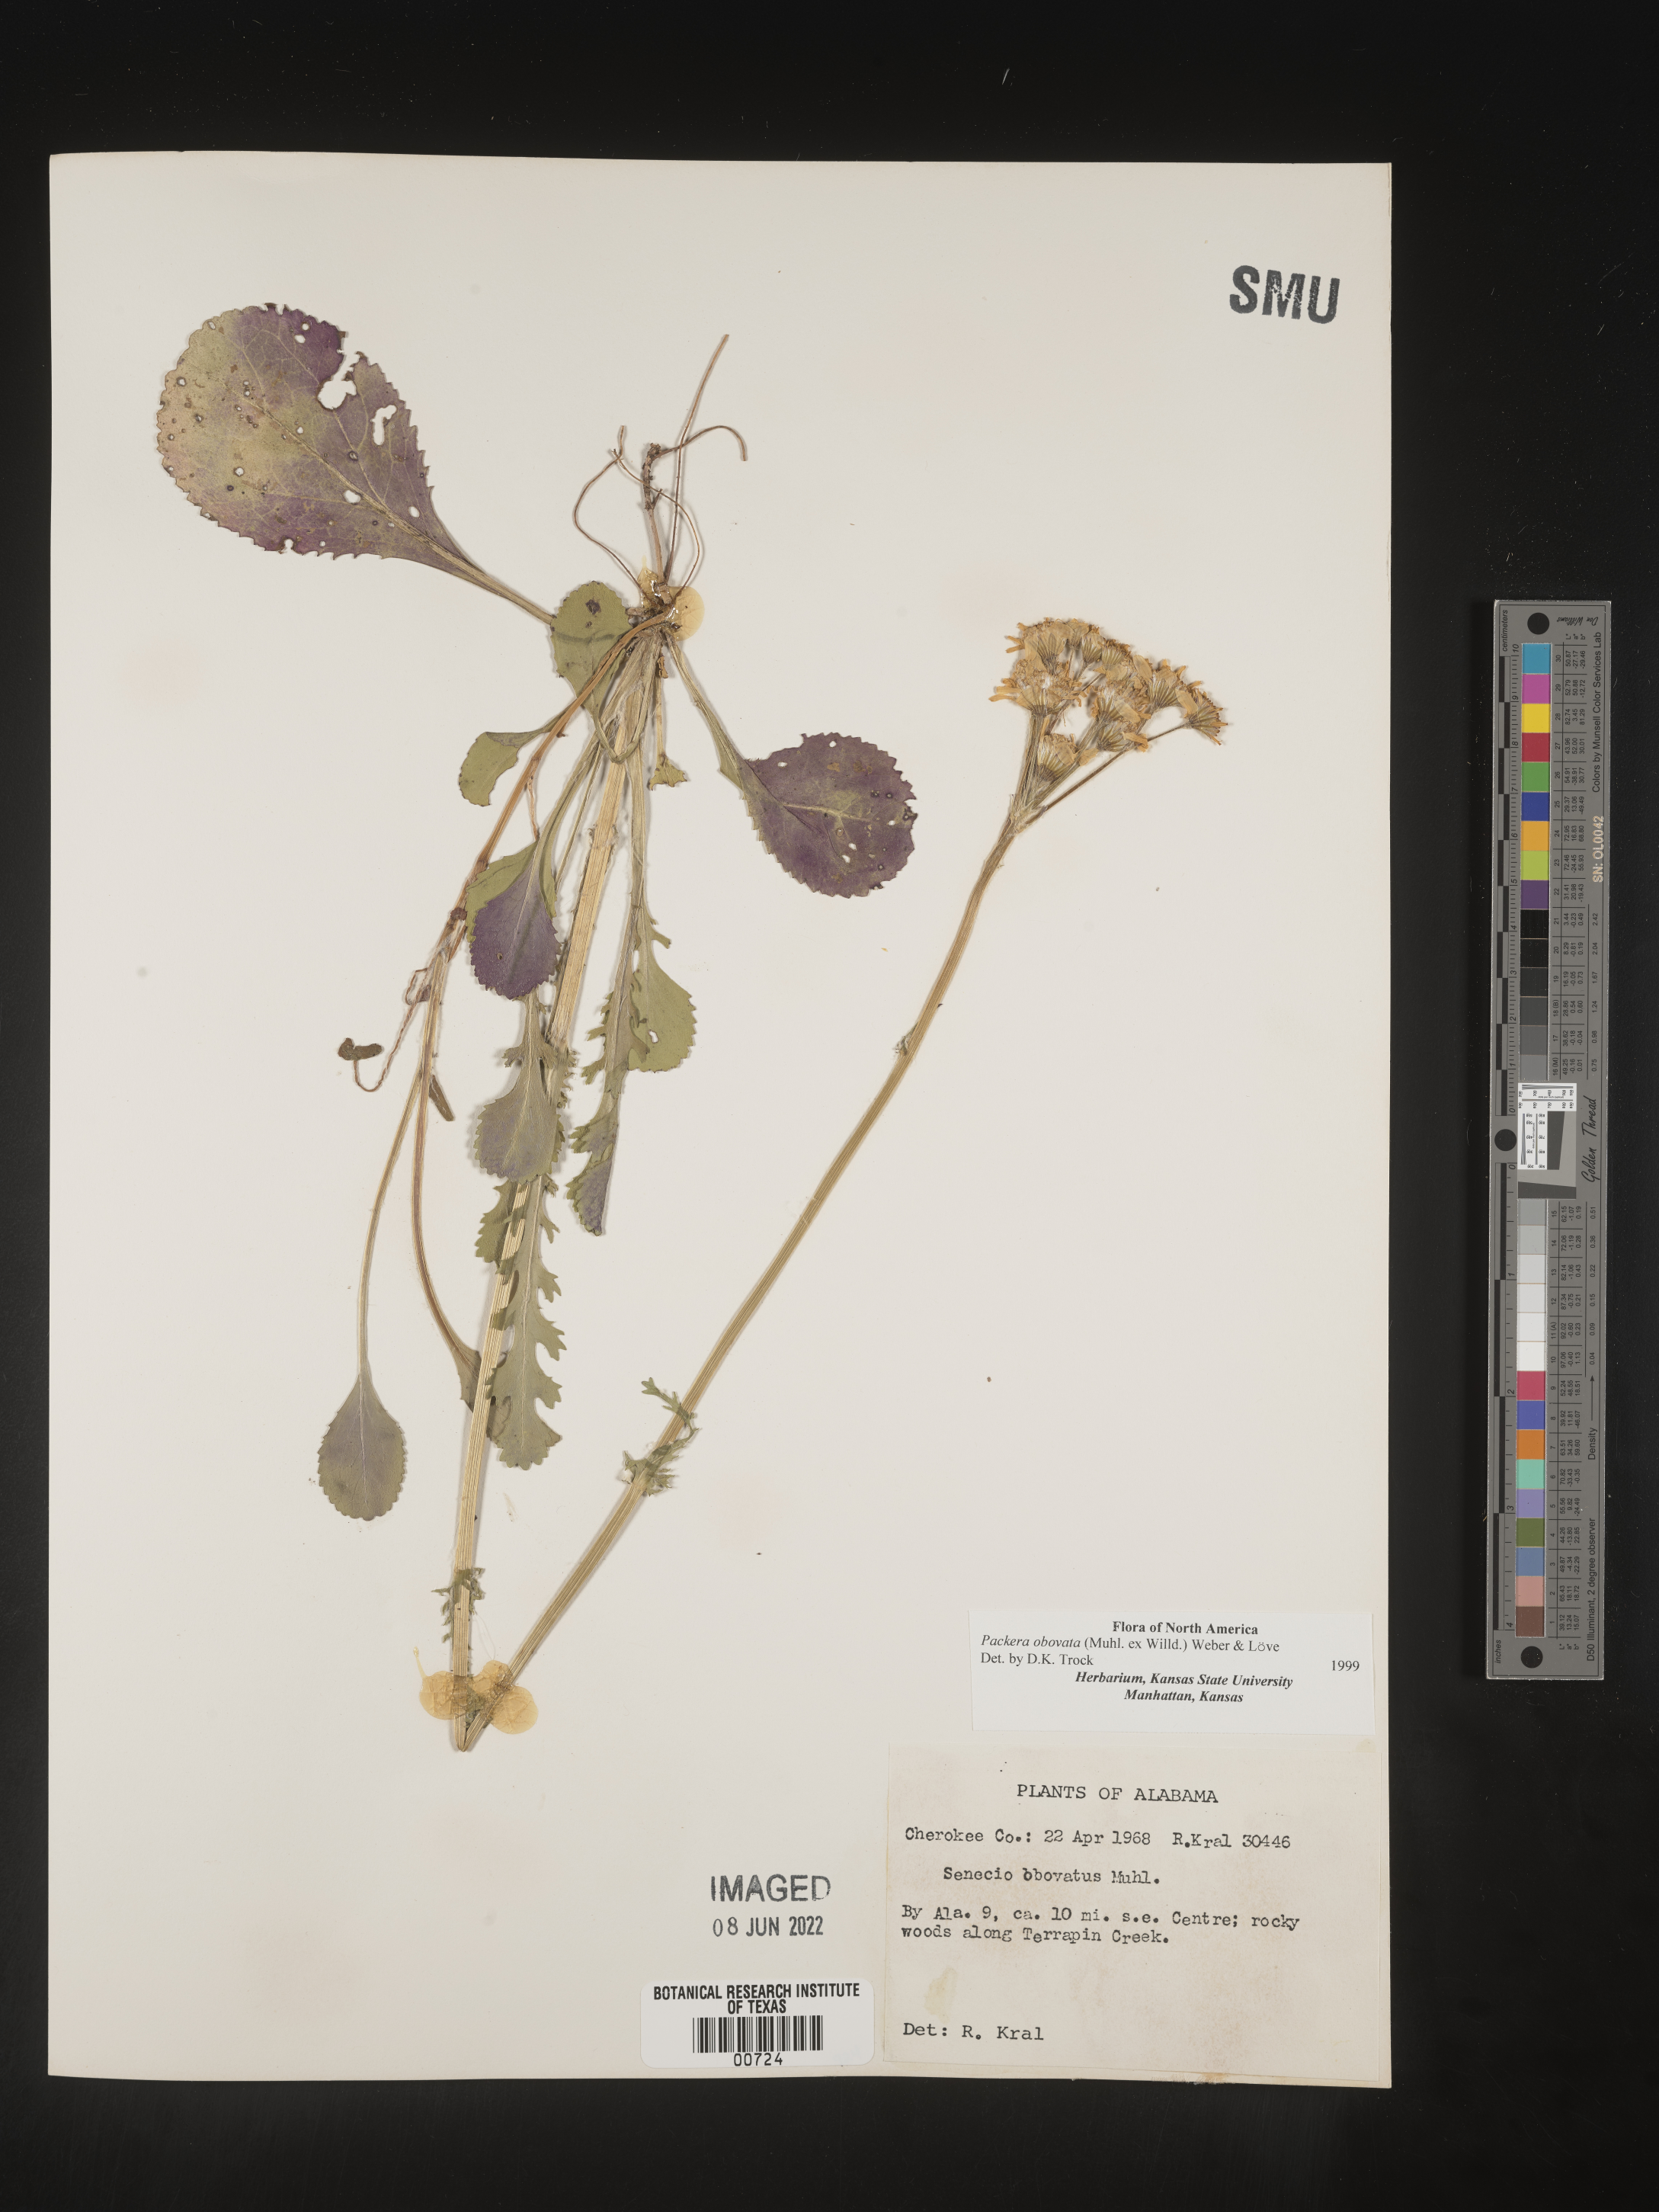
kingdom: Plantae
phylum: Tracheophyta
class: Magnoliopsida
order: Asterales
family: Asteraceae
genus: Packera
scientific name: Packera obovata
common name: Round-leaf ragwort
